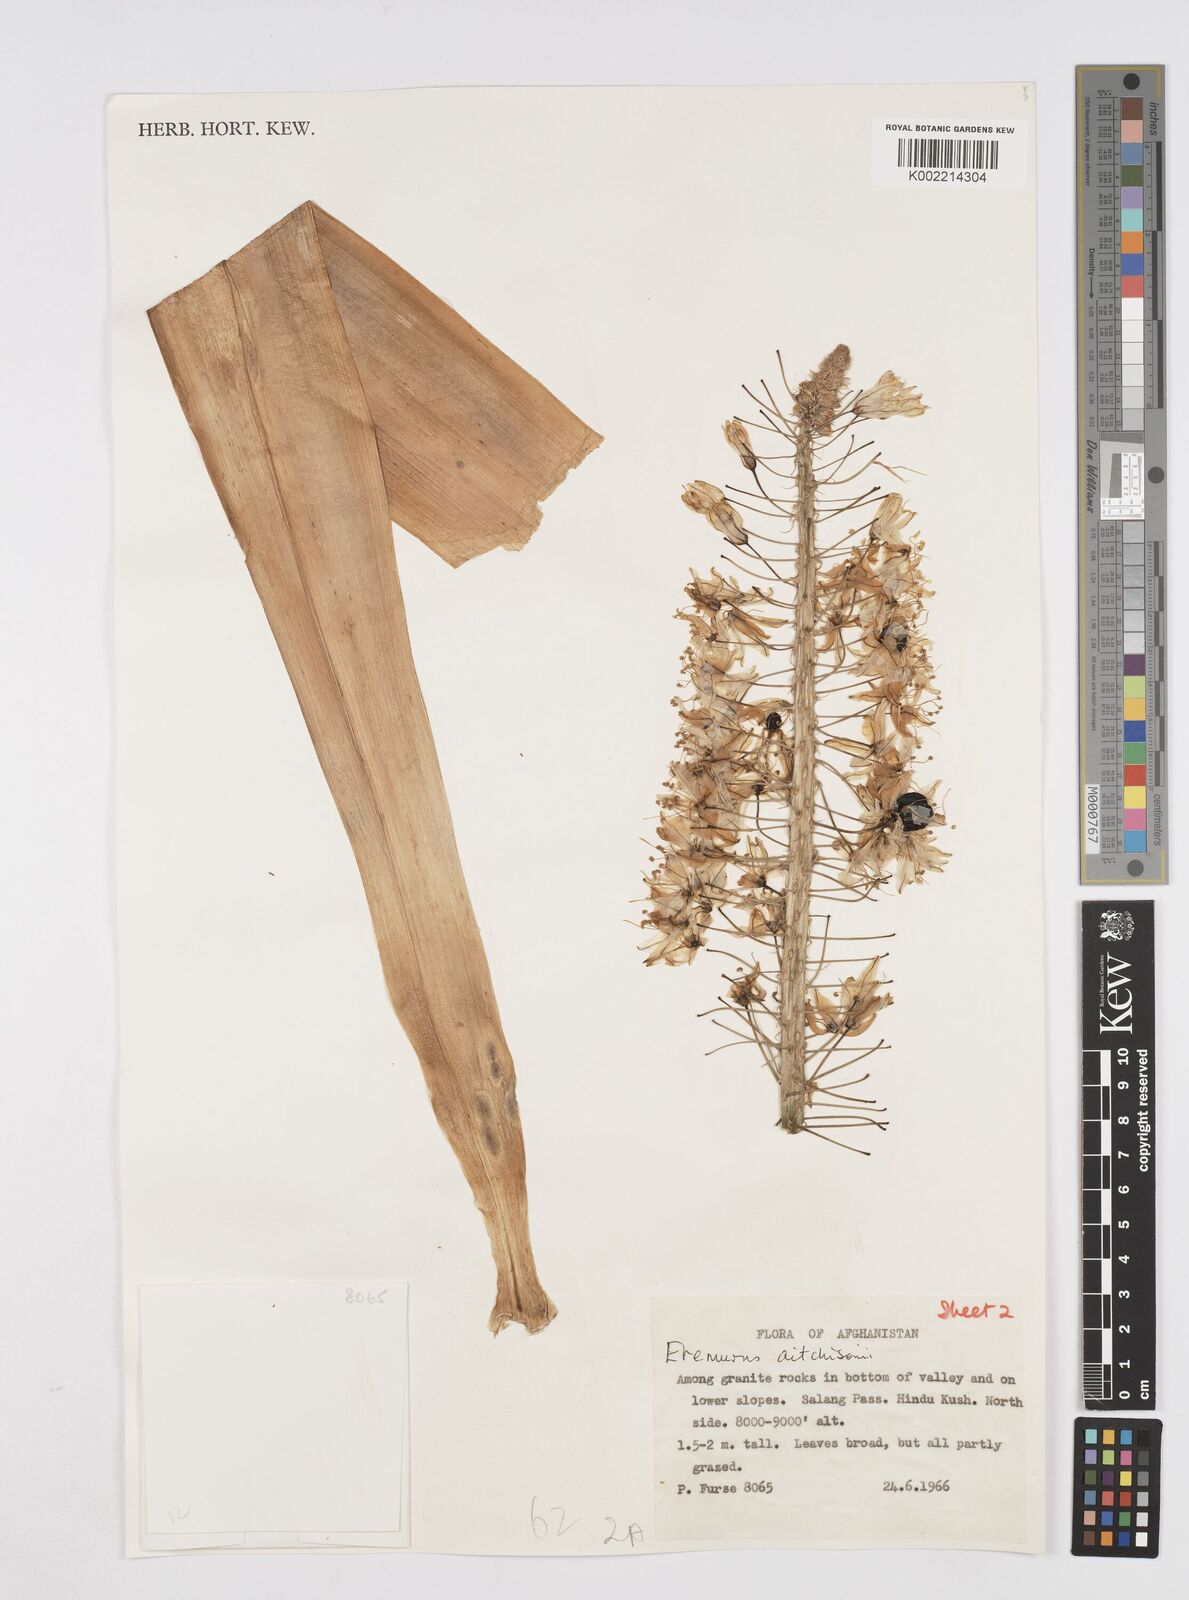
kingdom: Plantae
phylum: Tracheophyta
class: Liliopsida
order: Asparagales
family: Asphodelaceae
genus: Eremurus
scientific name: Eremurus aitchisonii
